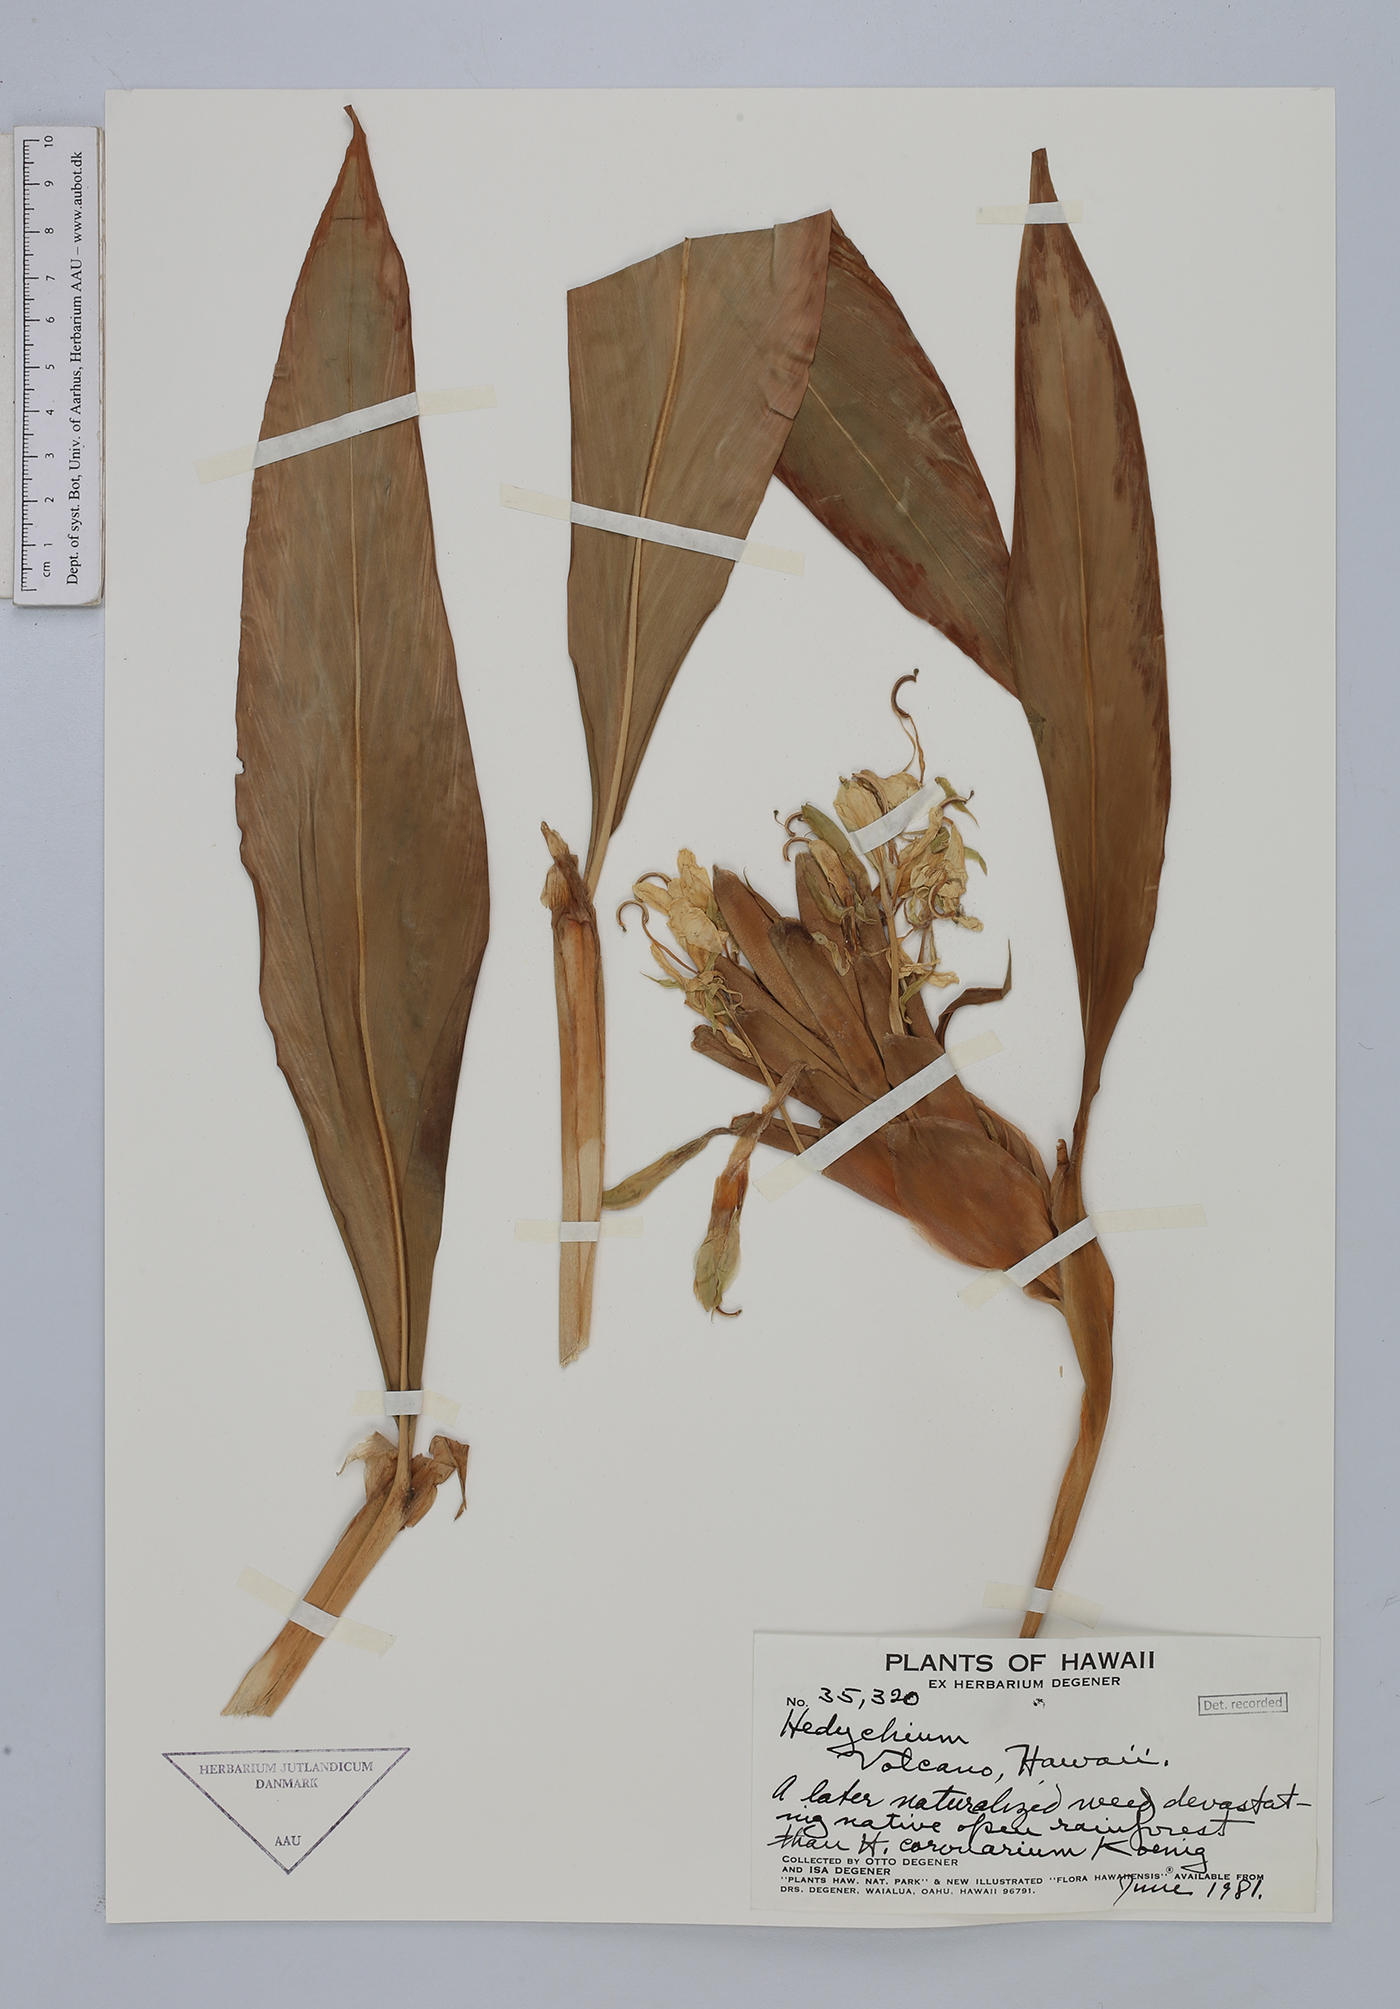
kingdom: Plantae
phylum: Tracheophyta
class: Liliopsida
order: Zingiberales
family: Zingiberaceae
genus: Hedychium
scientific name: Hedychium coronarium
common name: White garland-lily
